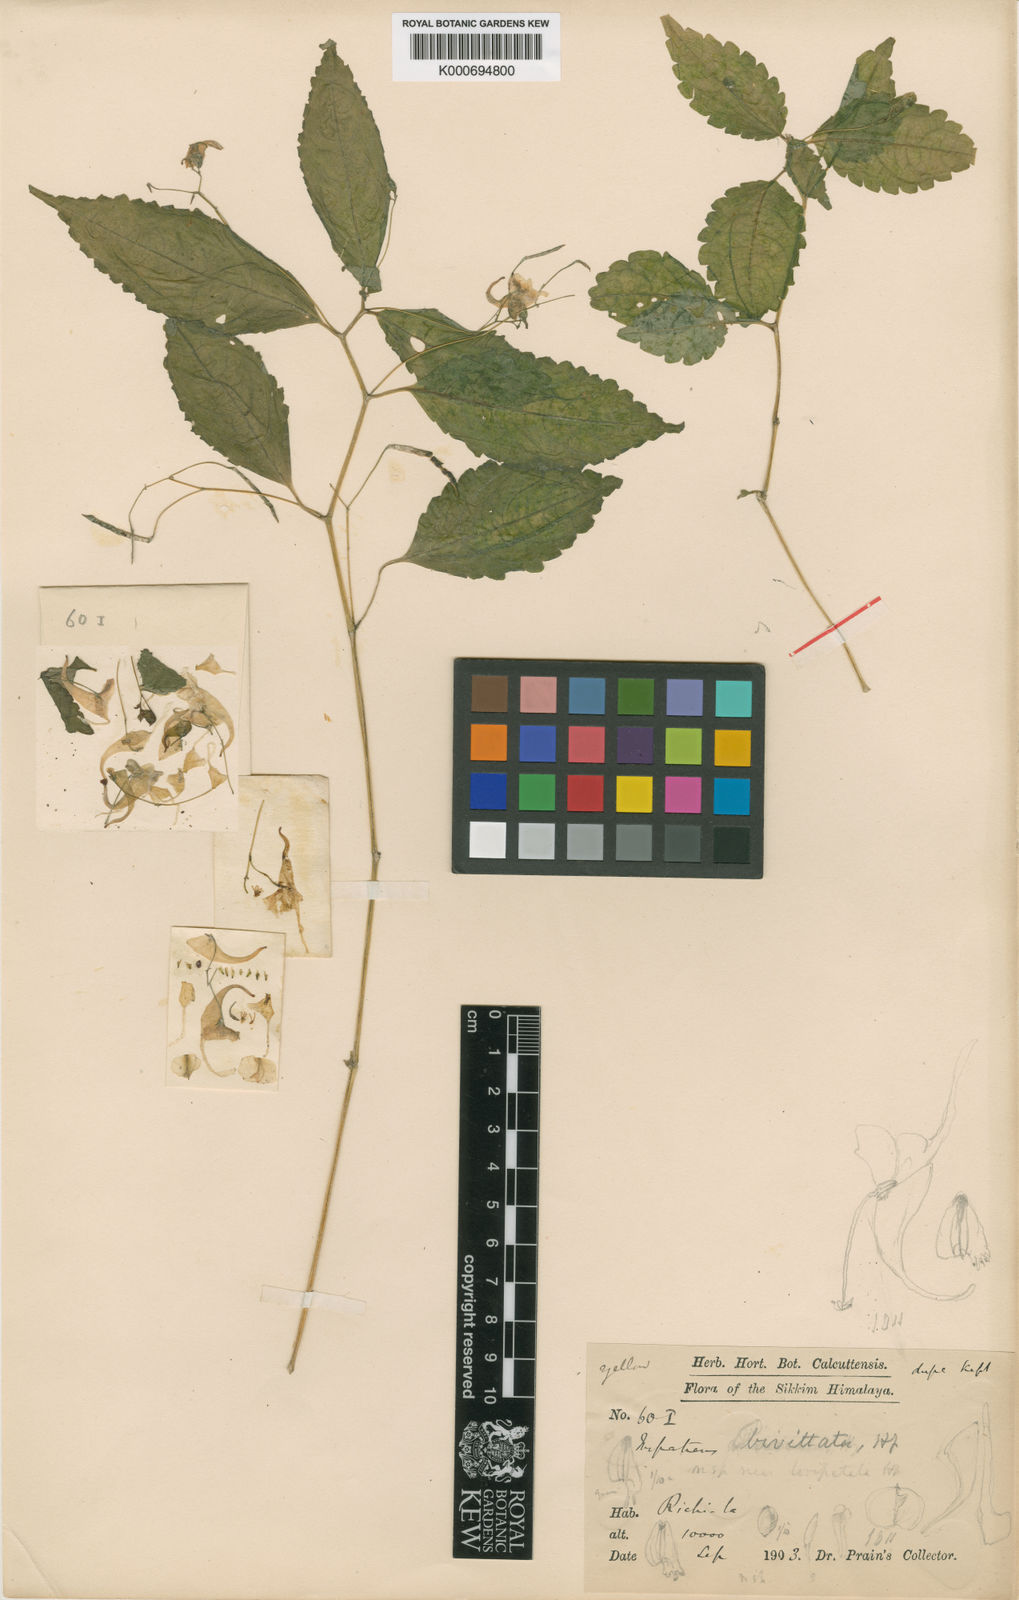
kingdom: Plantae
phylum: Tracheophyta
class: Magnoliopsida
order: Ericales
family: Balsaminaceae
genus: Impatiens
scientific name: Impatiens longipes
